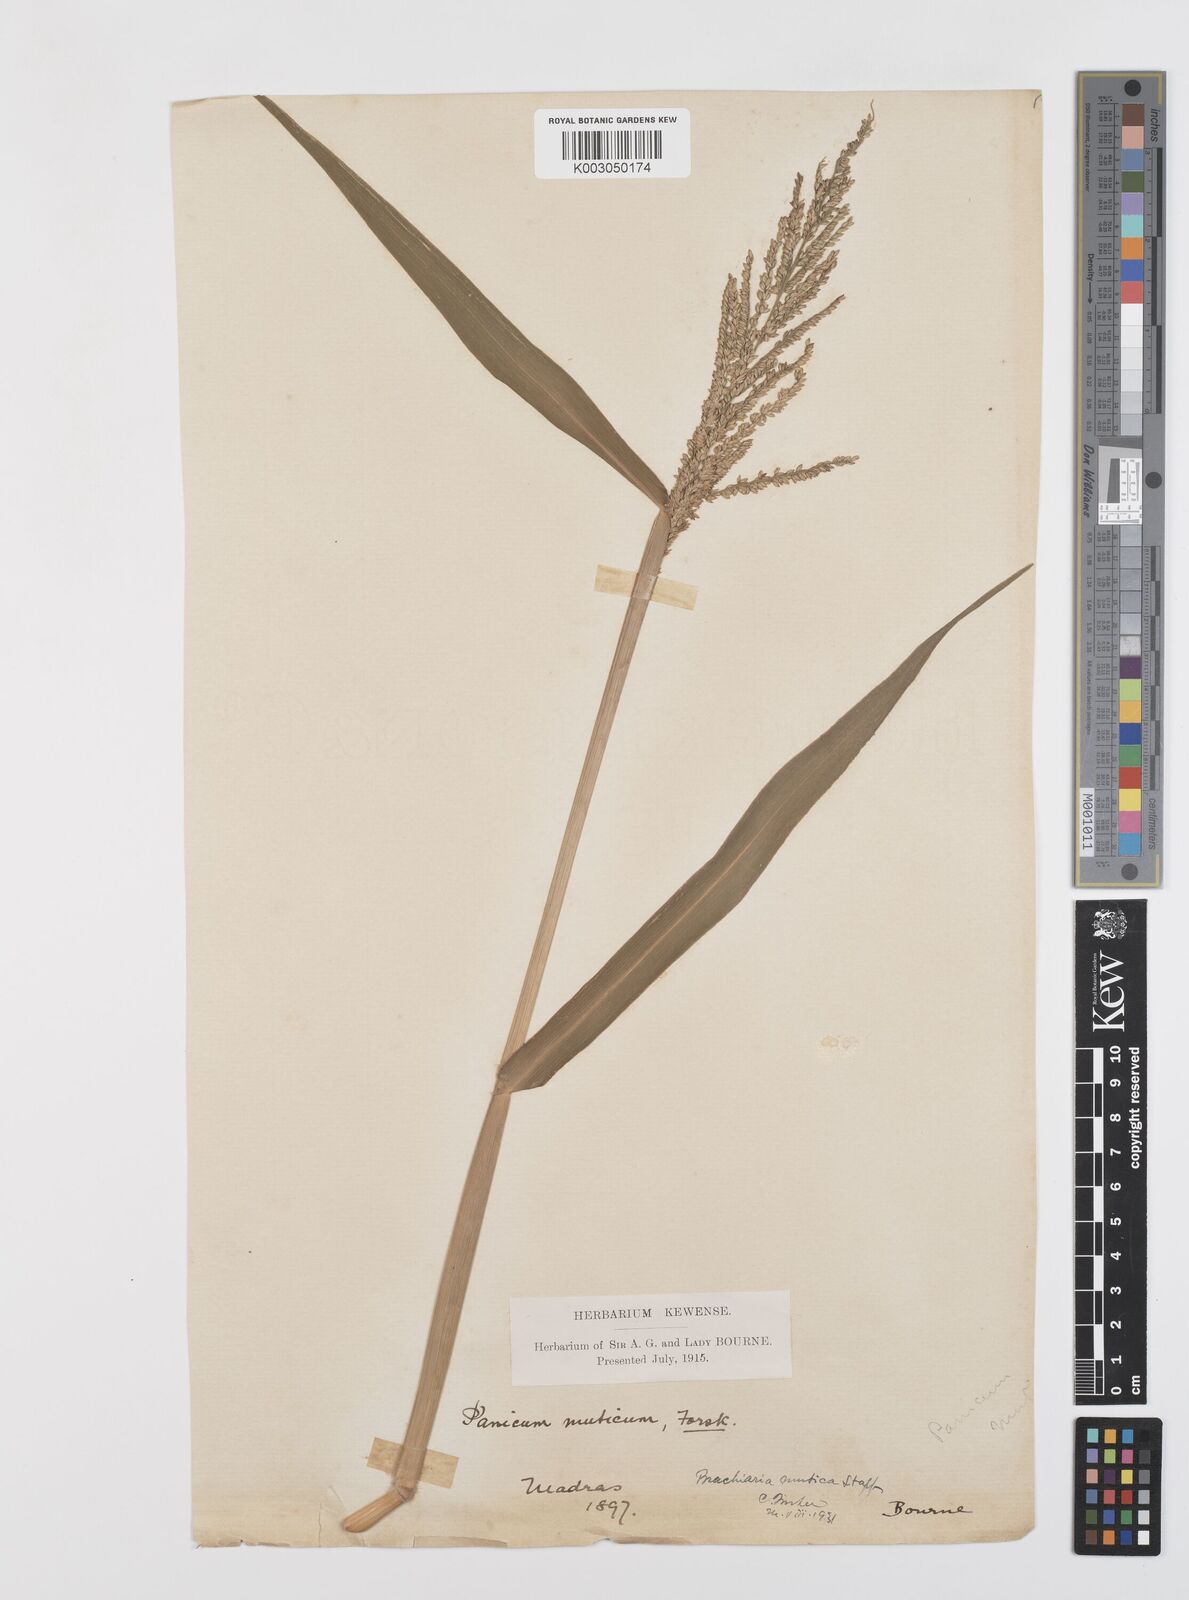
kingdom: Plantae
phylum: Tracheophyta
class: Liliopsida
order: Poales
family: Poaceae
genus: Urochloa
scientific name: Urochloa mutica
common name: Para grass
